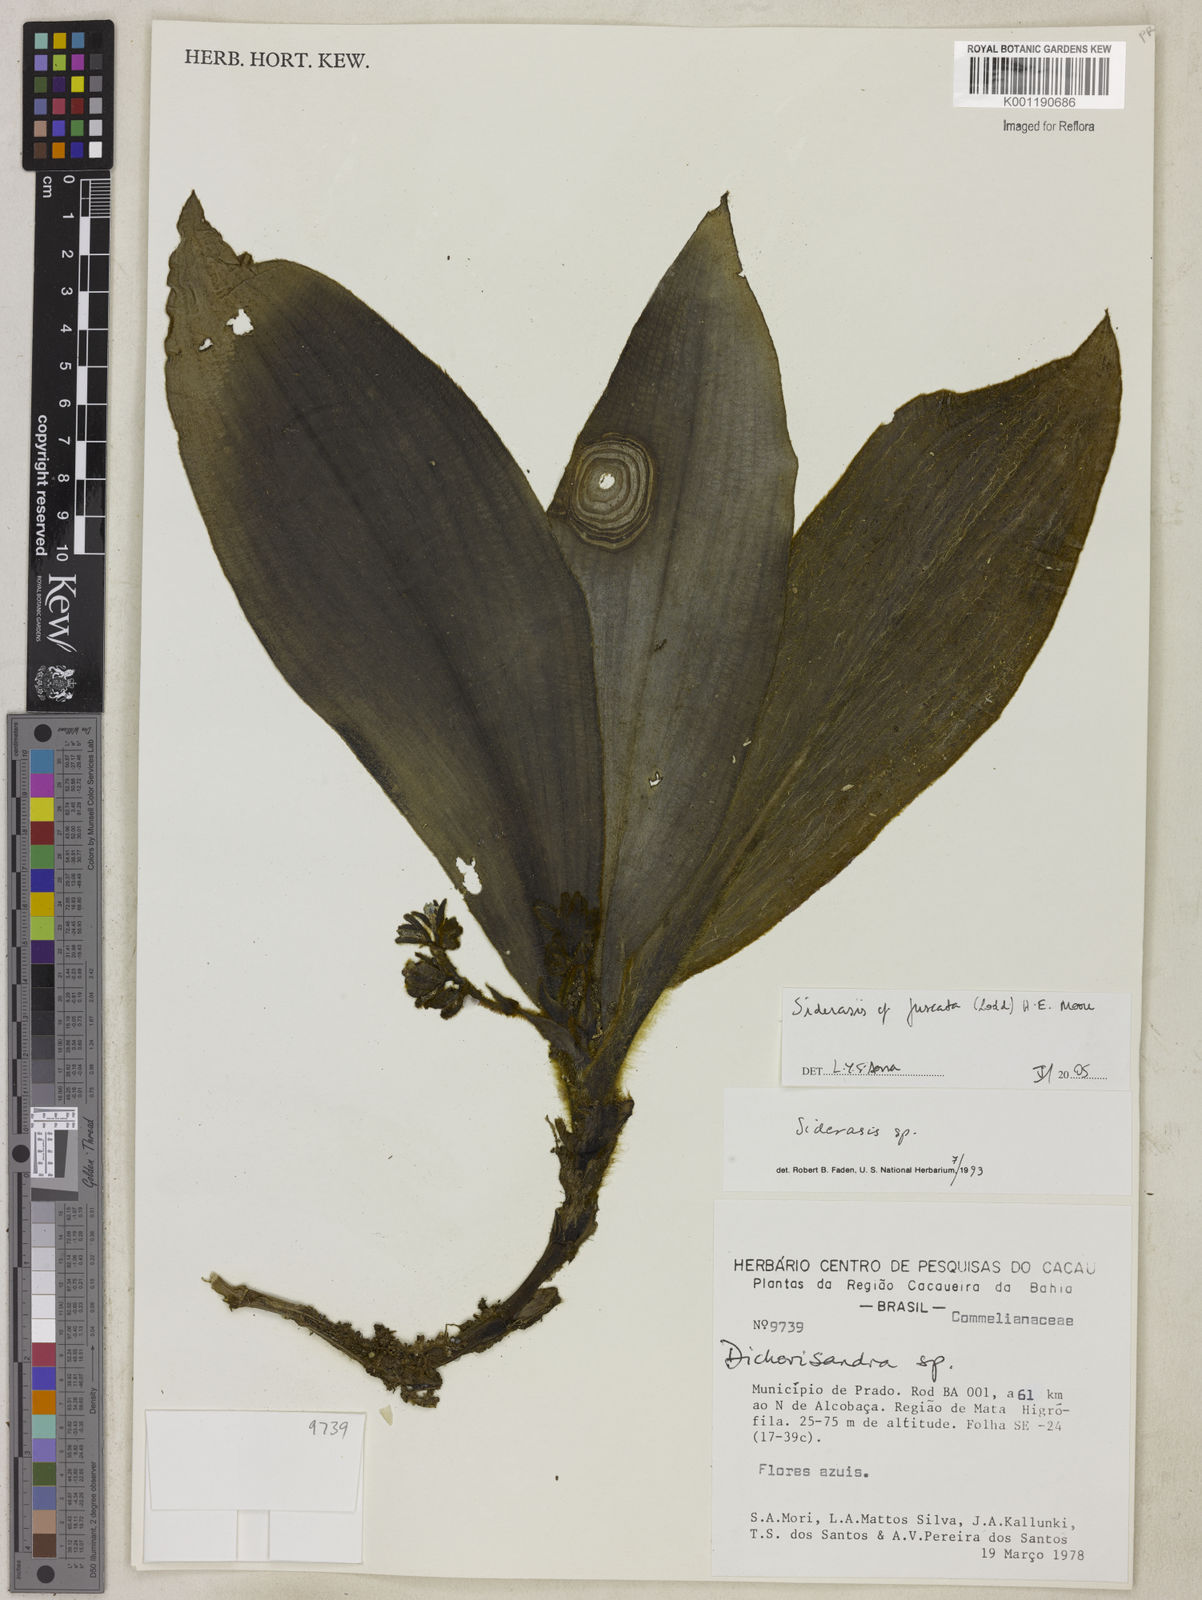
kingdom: Plantae
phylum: Tracheophyta
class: Liliopsida
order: Commelinales
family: Commelinaceae
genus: Siderasis
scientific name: Siderasis fuscata
